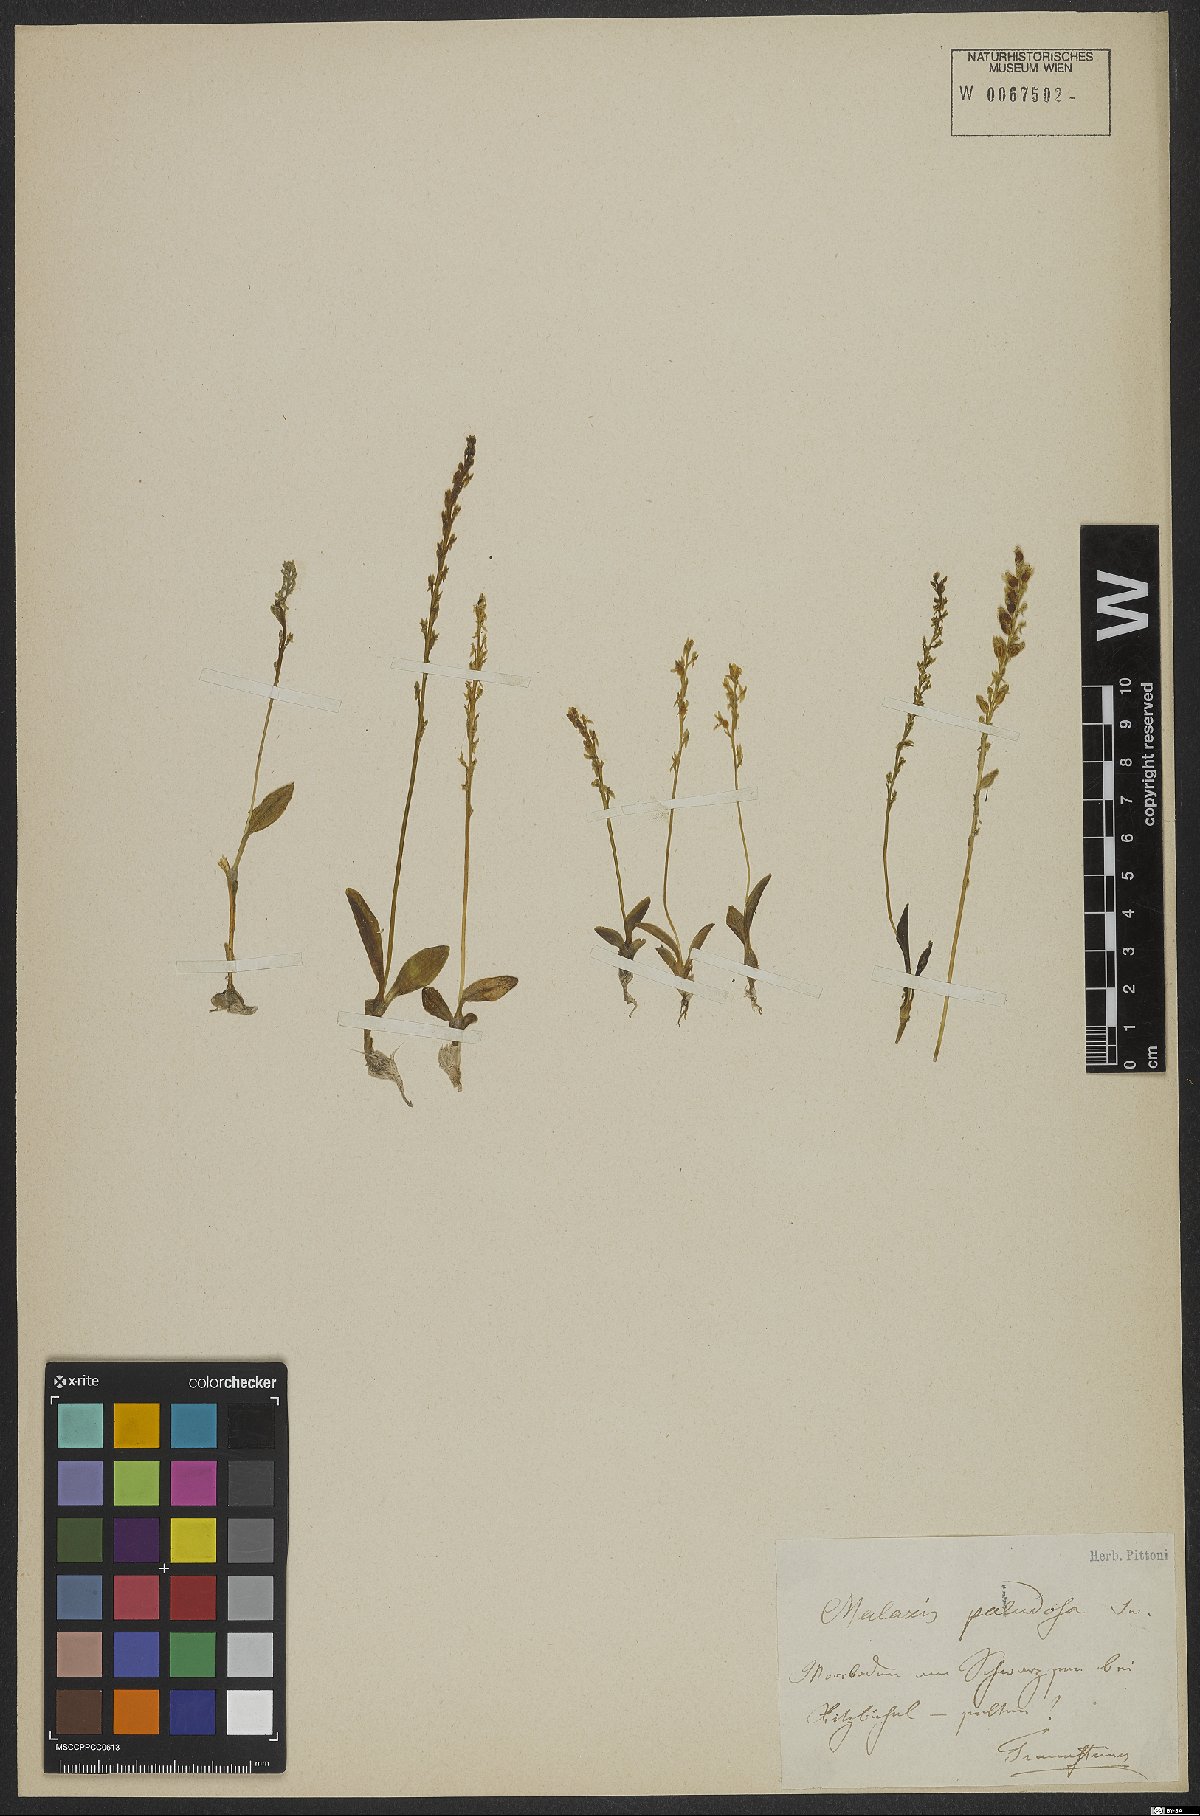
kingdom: Plantae
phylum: Tracheophyta
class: Liliopsida
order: Asparagales
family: Orchidaceae
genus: Hammarbya
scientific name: Hammarbya paludosa
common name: Bog orchid
